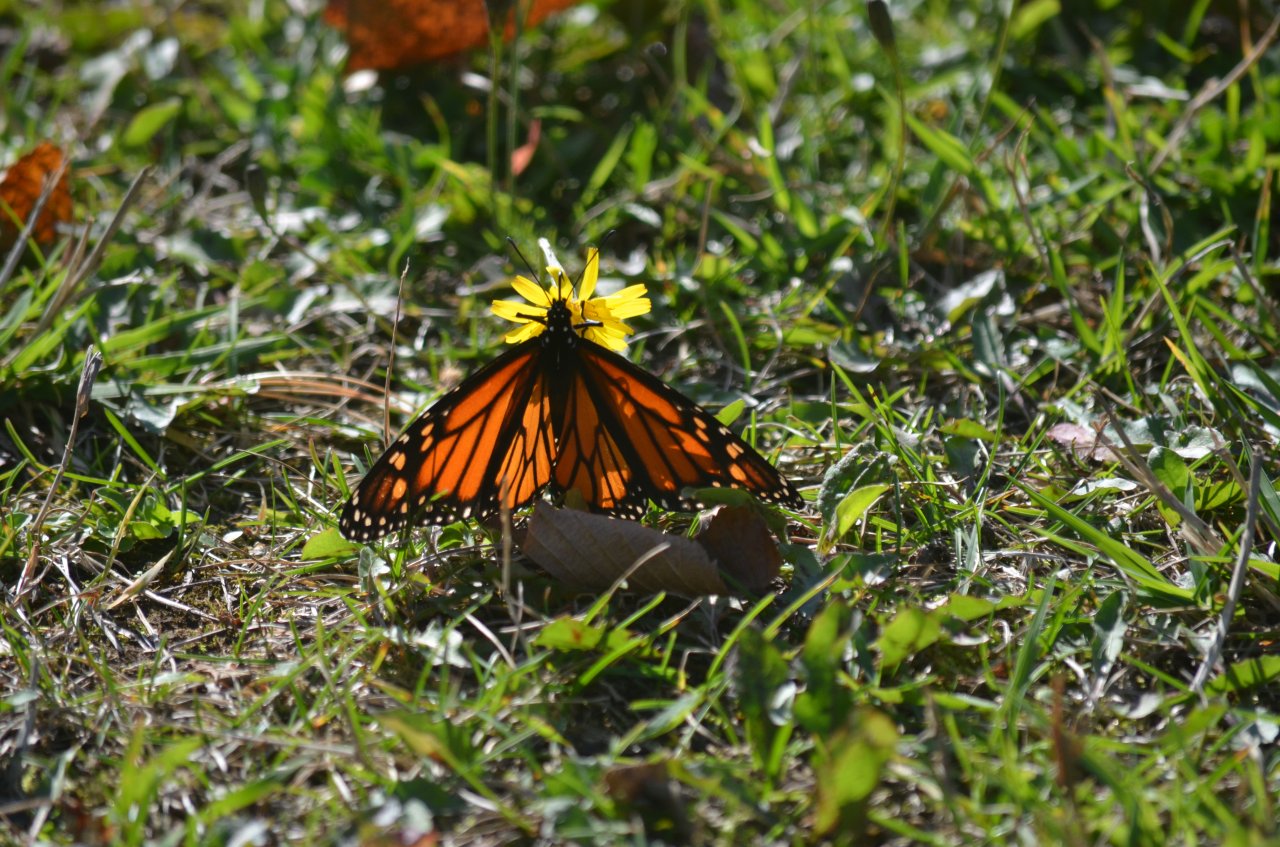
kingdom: Animalia
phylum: Arthropoda
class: Insecta
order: Lepidoptera
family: Nymphalidae
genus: Danaus
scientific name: Danaus plexippus
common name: Monarch
